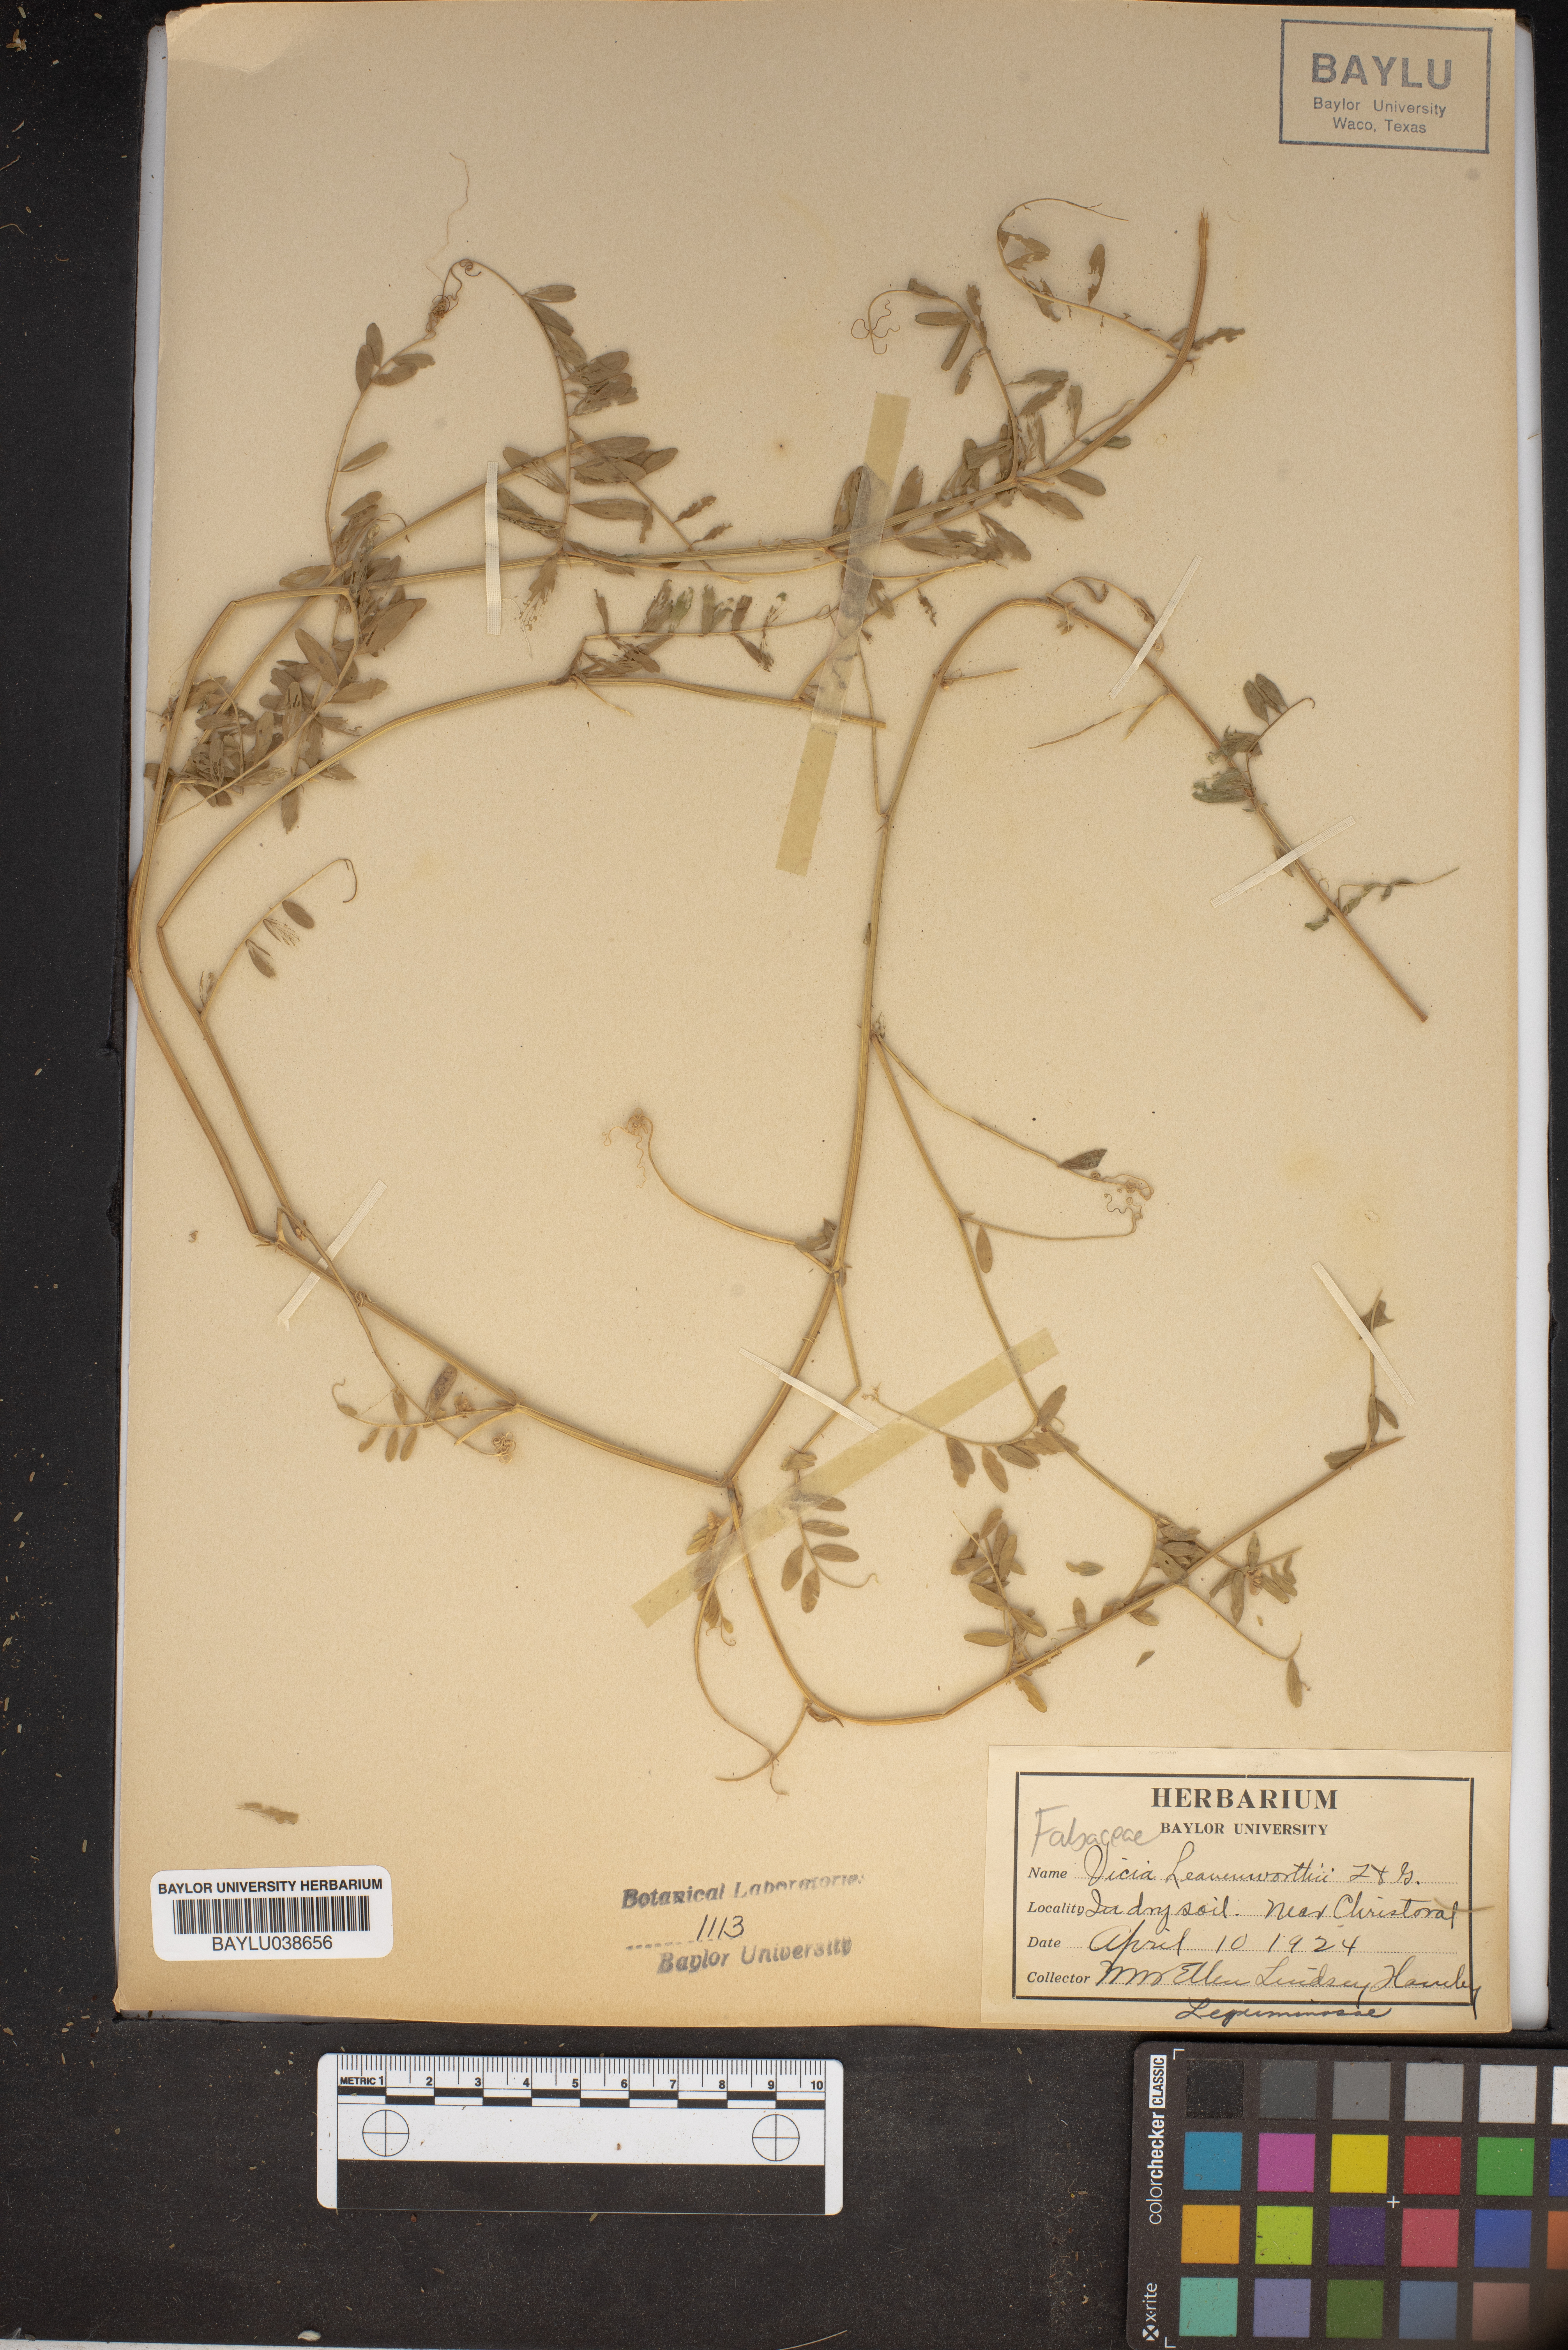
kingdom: Plantae
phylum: Tracheophyta
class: Magnoliopsida
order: Fabales
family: Fabaceae
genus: Vicia
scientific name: Vicia ludoviciana
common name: Louisiana vetch
